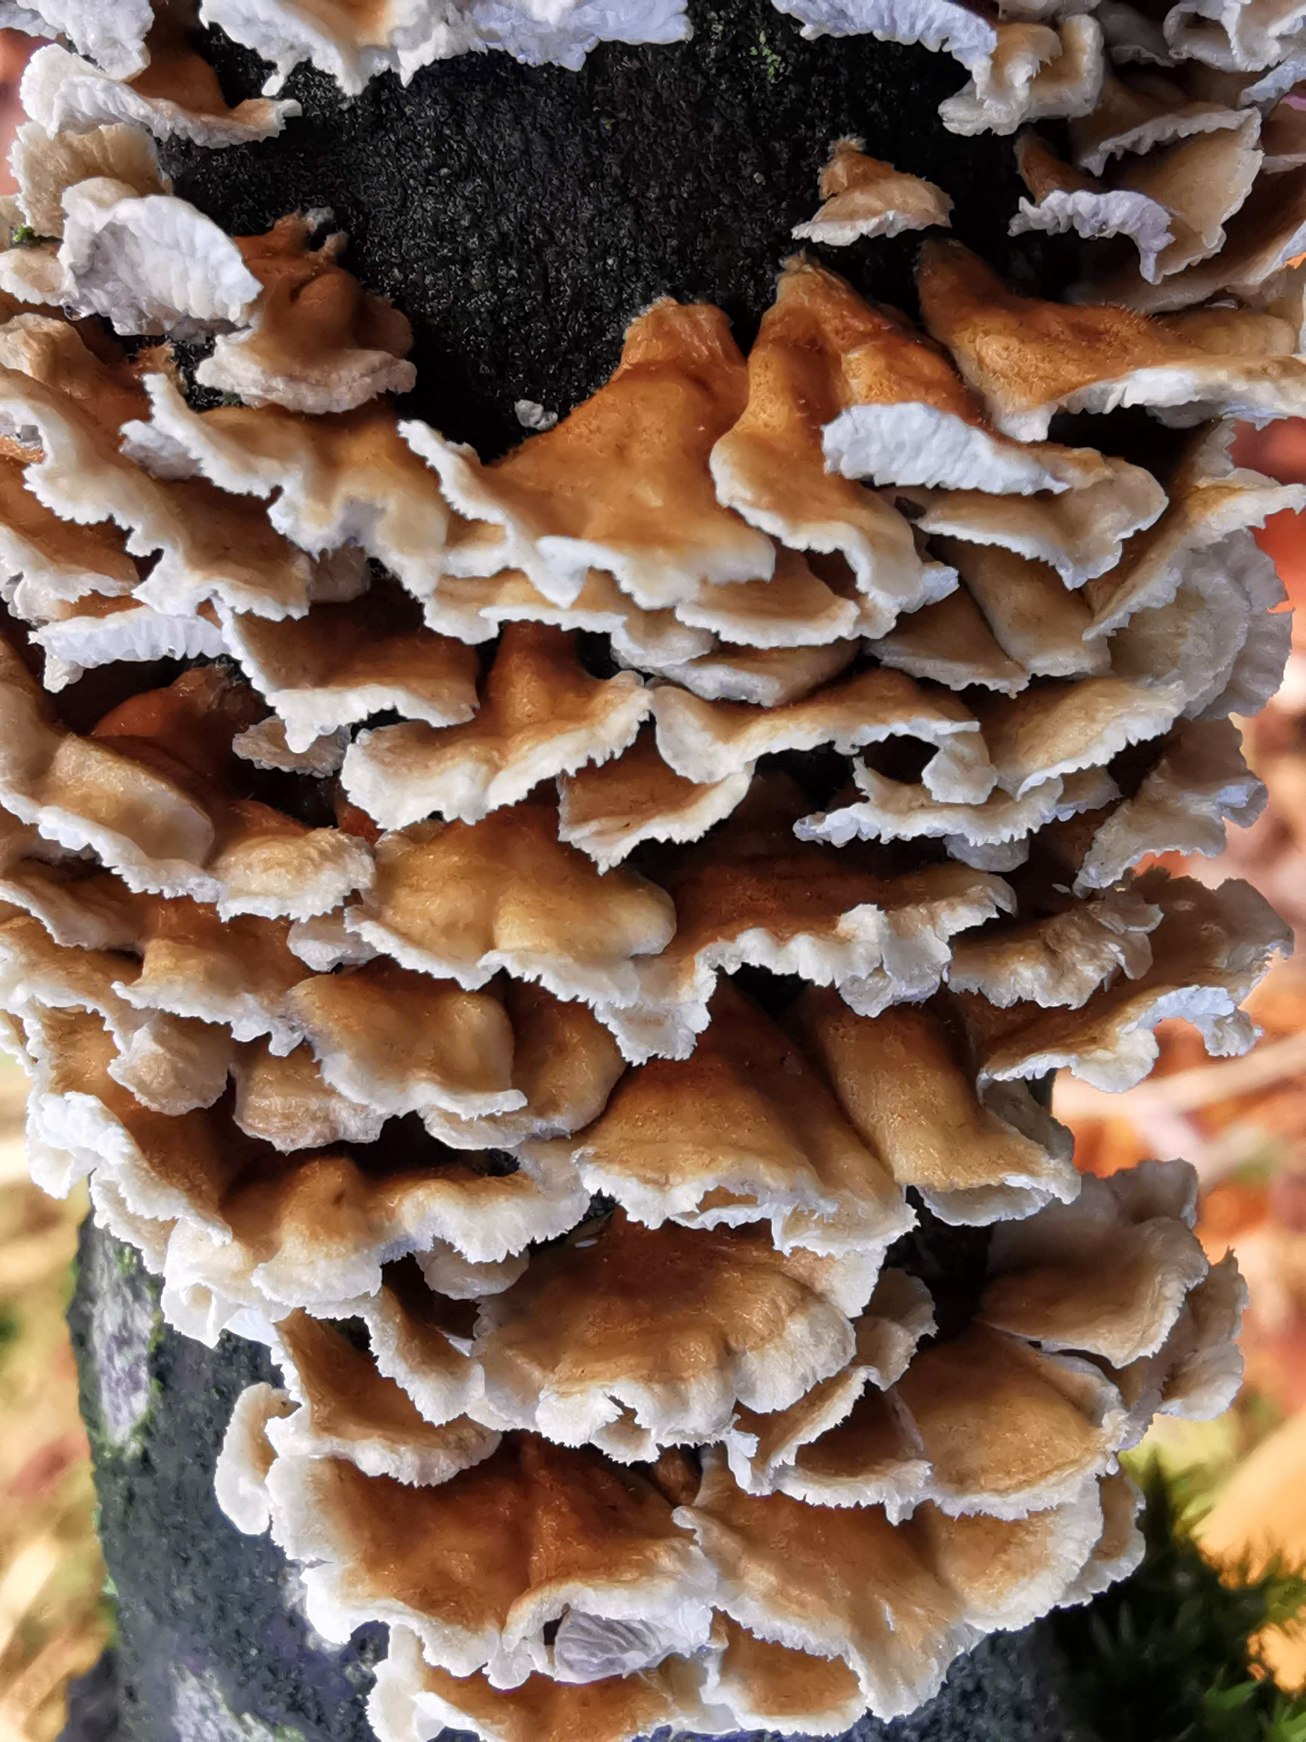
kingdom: Fungi
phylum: Basidiomycota
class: Agaricomycetes
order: Amylocorticiales
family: Amylocorticiaceae
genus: Plicaturopsis
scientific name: Plicaturopsis crispa
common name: Krusblad
